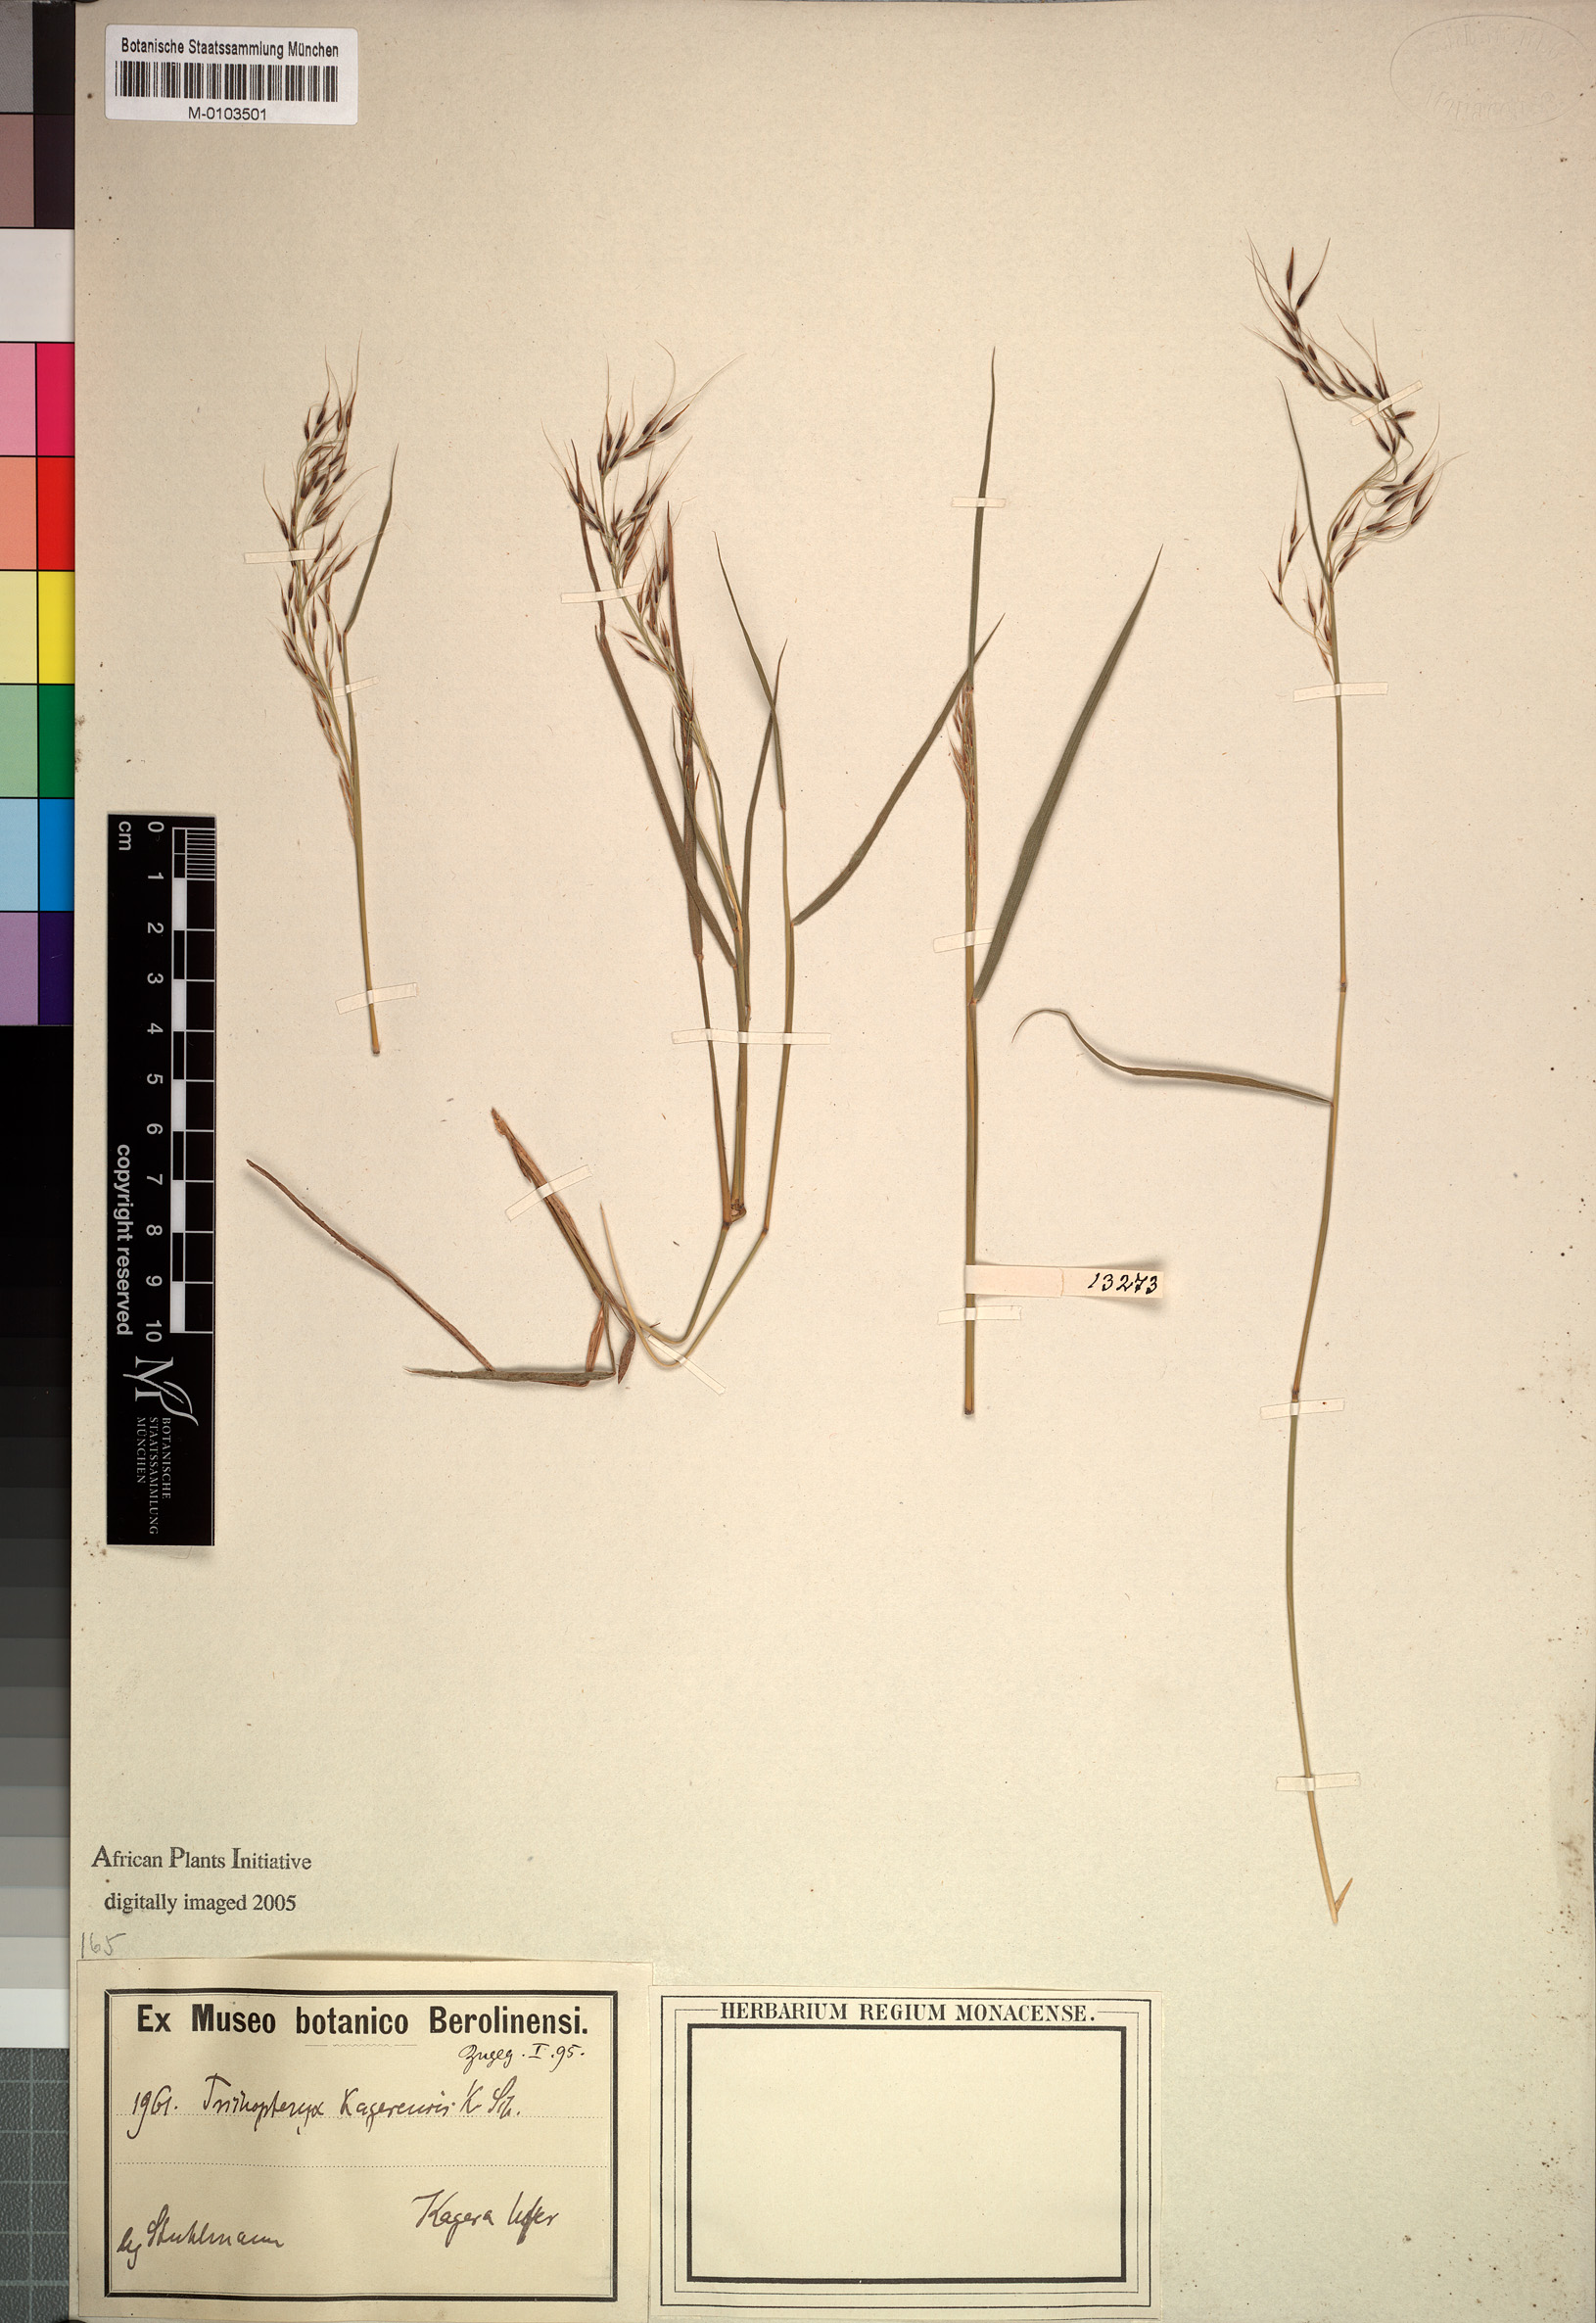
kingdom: Plantae
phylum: Tracheophyta
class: Liliopsida
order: Poales
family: Poaceae
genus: Loudetia
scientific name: Loudetia kagerensis
